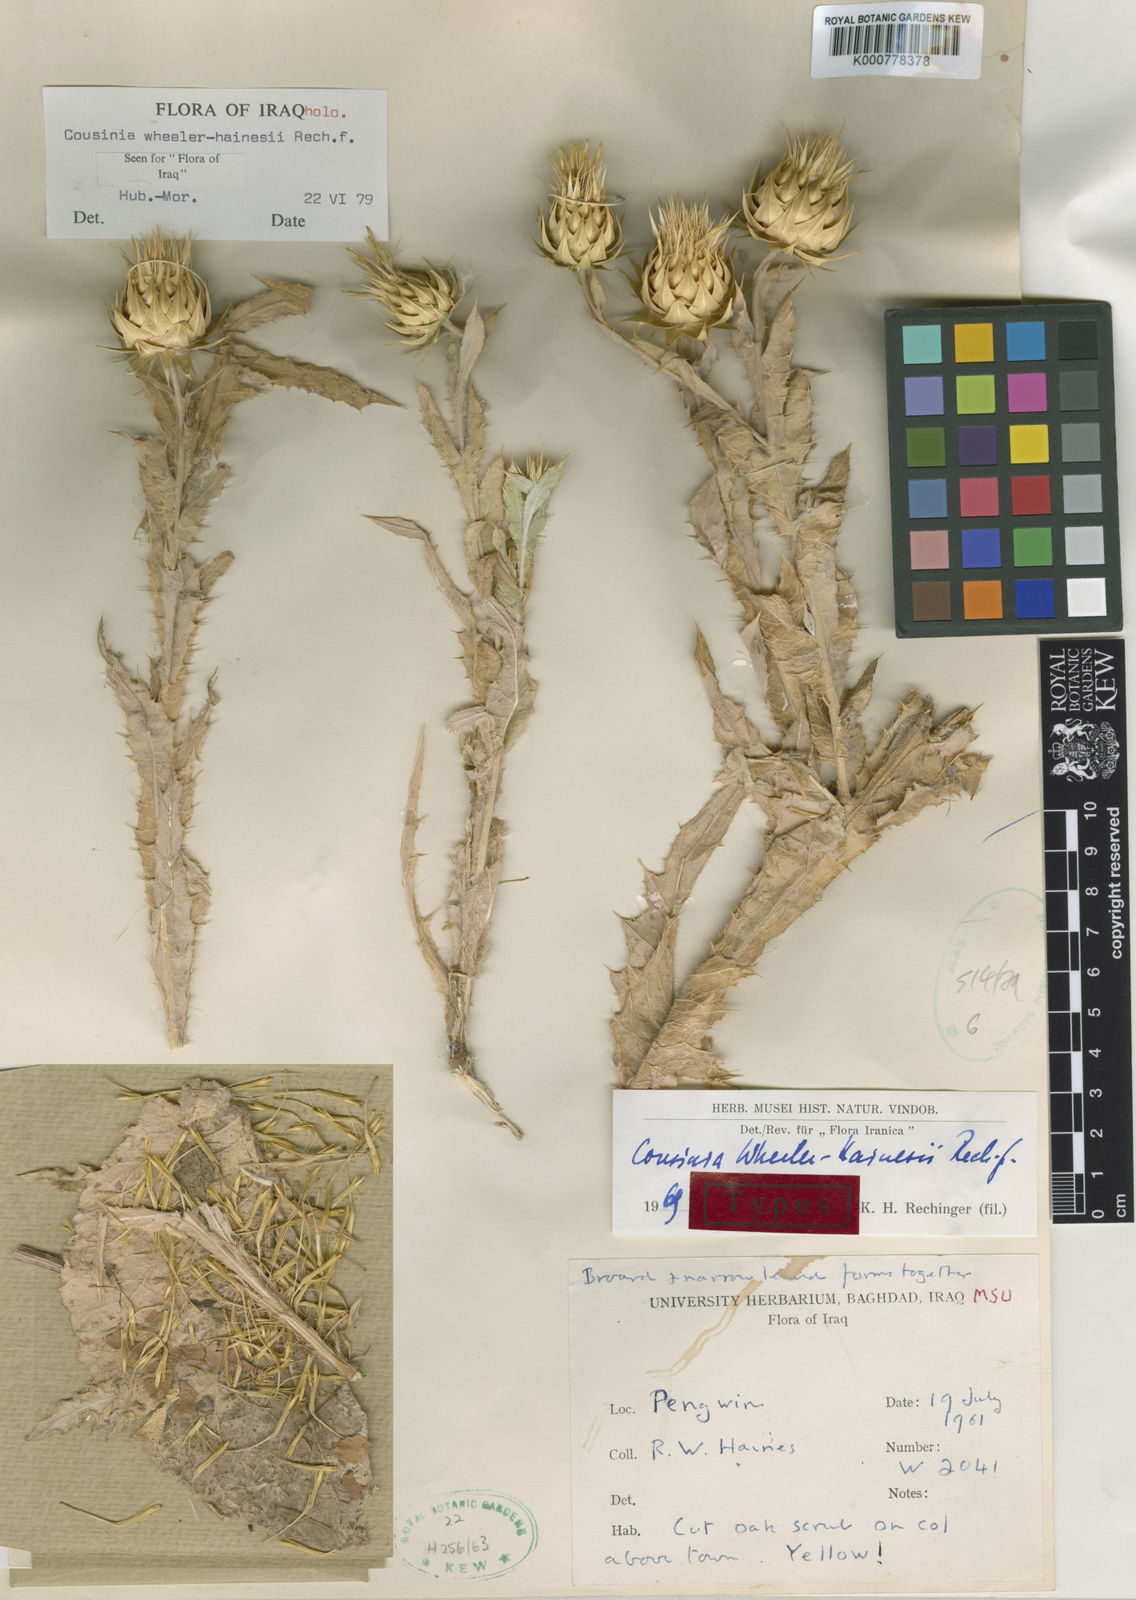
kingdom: Plantae
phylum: Tracheophyta
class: Magnoliopsida
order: Asterales
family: Asteraceae
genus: Cousinia
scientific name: Cousinia pergamacea
